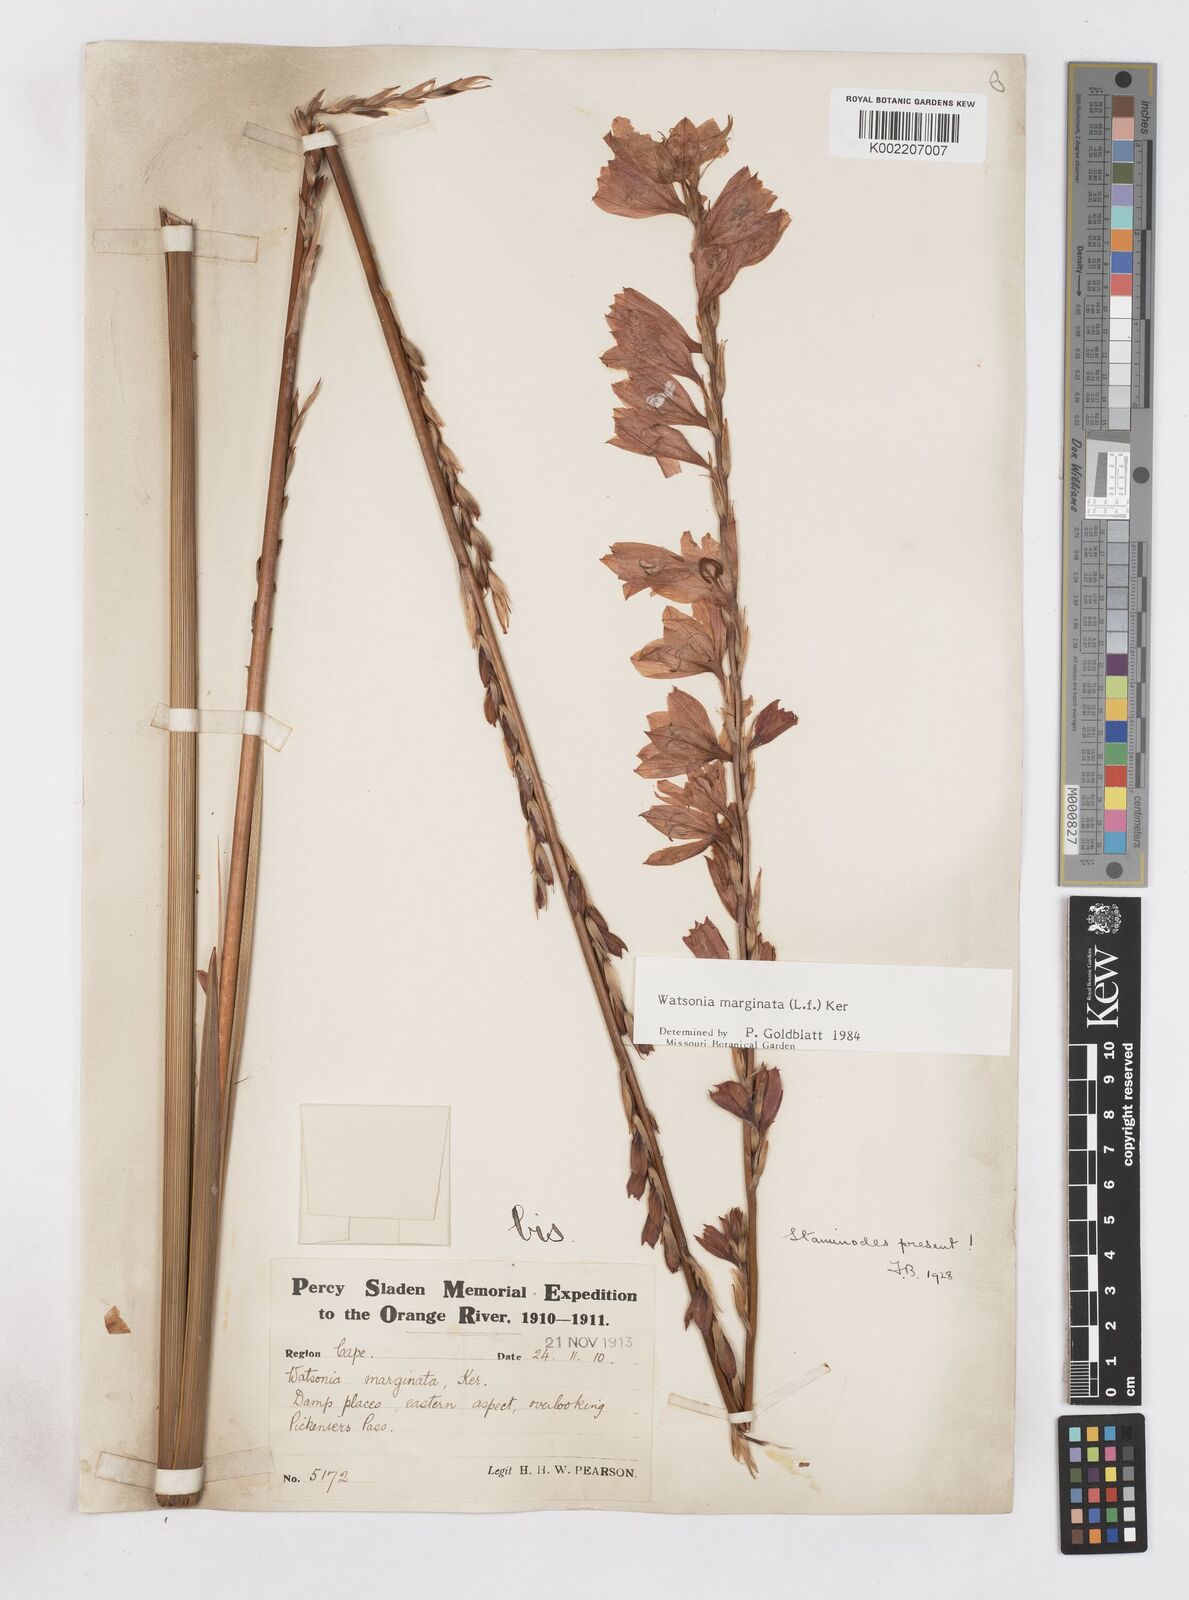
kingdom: Plantae
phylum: Tracheophyta
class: Liliopsida
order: Asparagales
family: Iridaceae
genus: Watsonia
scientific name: Watsonia marginata
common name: Fragrant bugle-lily
